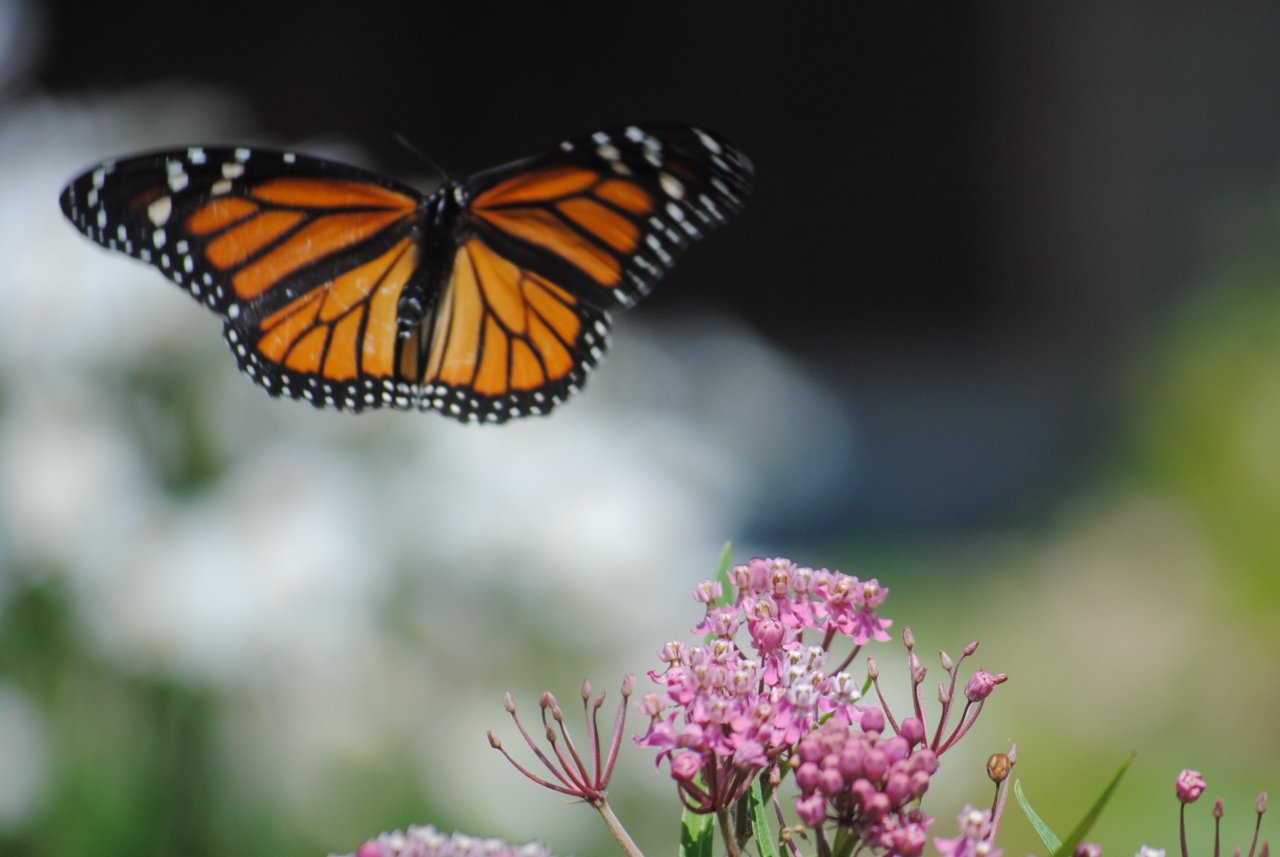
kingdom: Animalia
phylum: Arthropoda
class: Insecta
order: Lepidoptera
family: Nymphalidae
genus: Danaus
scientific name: Danaus plexippus
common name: Monarch
